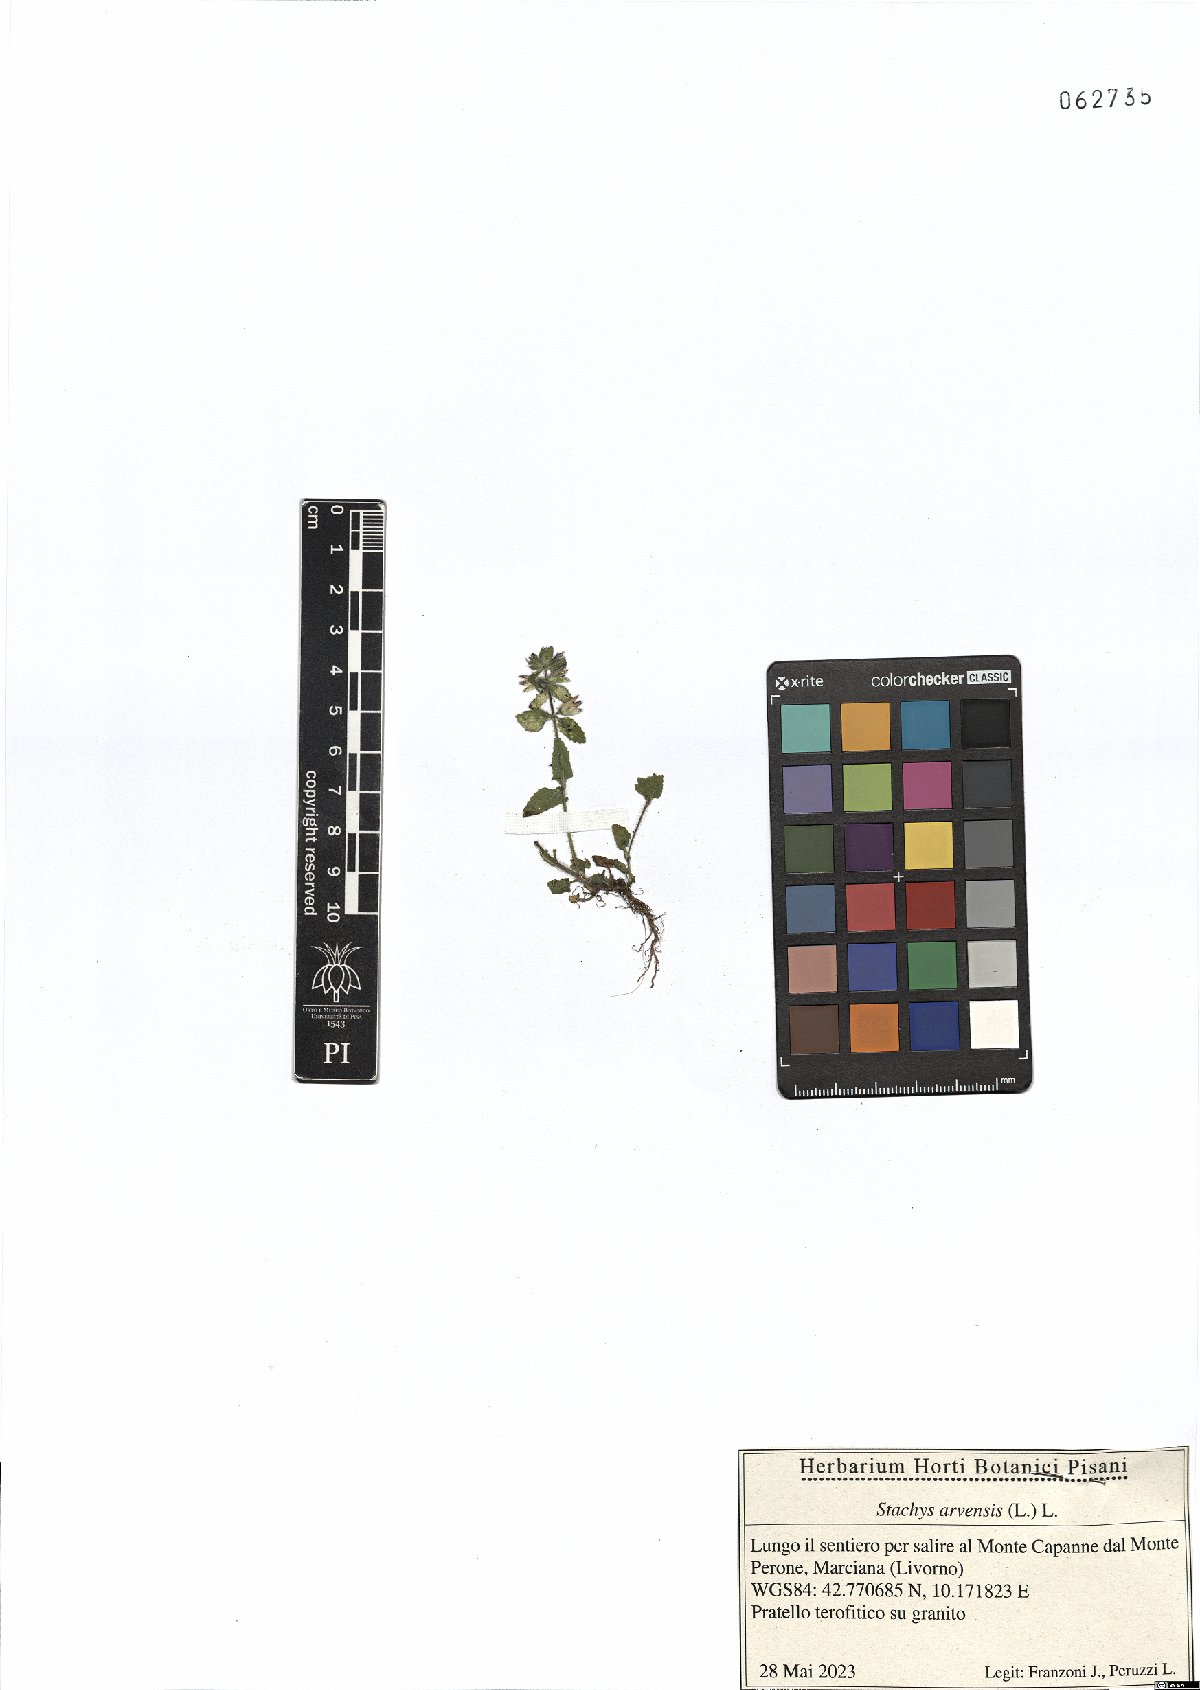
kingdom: Plantae
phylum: Tracheophyta
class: Magnoliopsida
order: Lamiales
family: Lamiaceae
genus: Stachys
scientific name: Stachys arvensis
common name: Field woundwort
